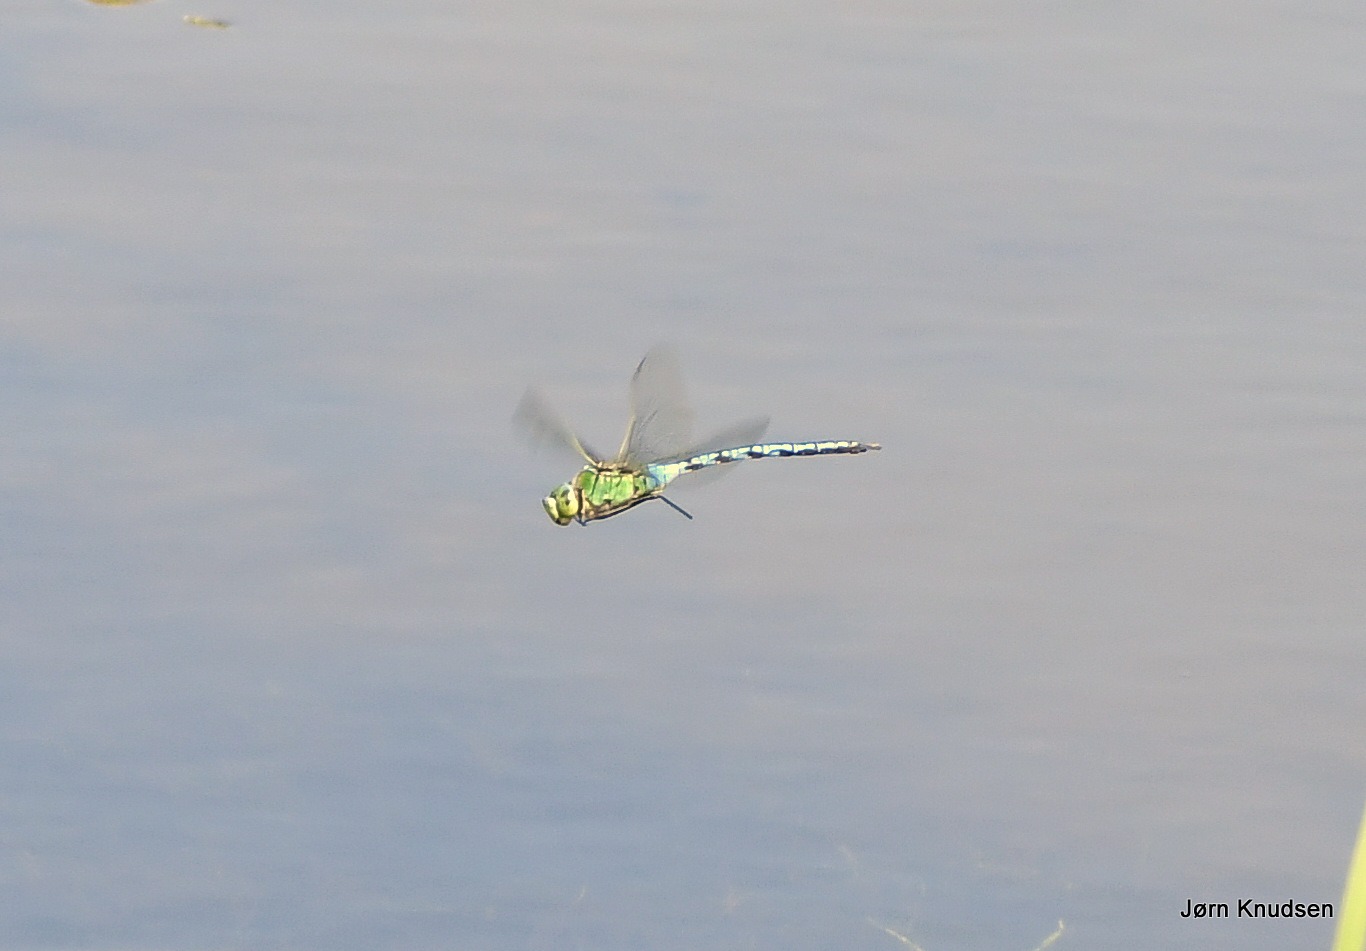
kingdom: Animalia
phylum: Arthropoda
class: Insecta
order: Odonata
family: Aeshnidae
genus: Anax
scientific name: Anax imperator
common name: Stor kejserguldsmed
